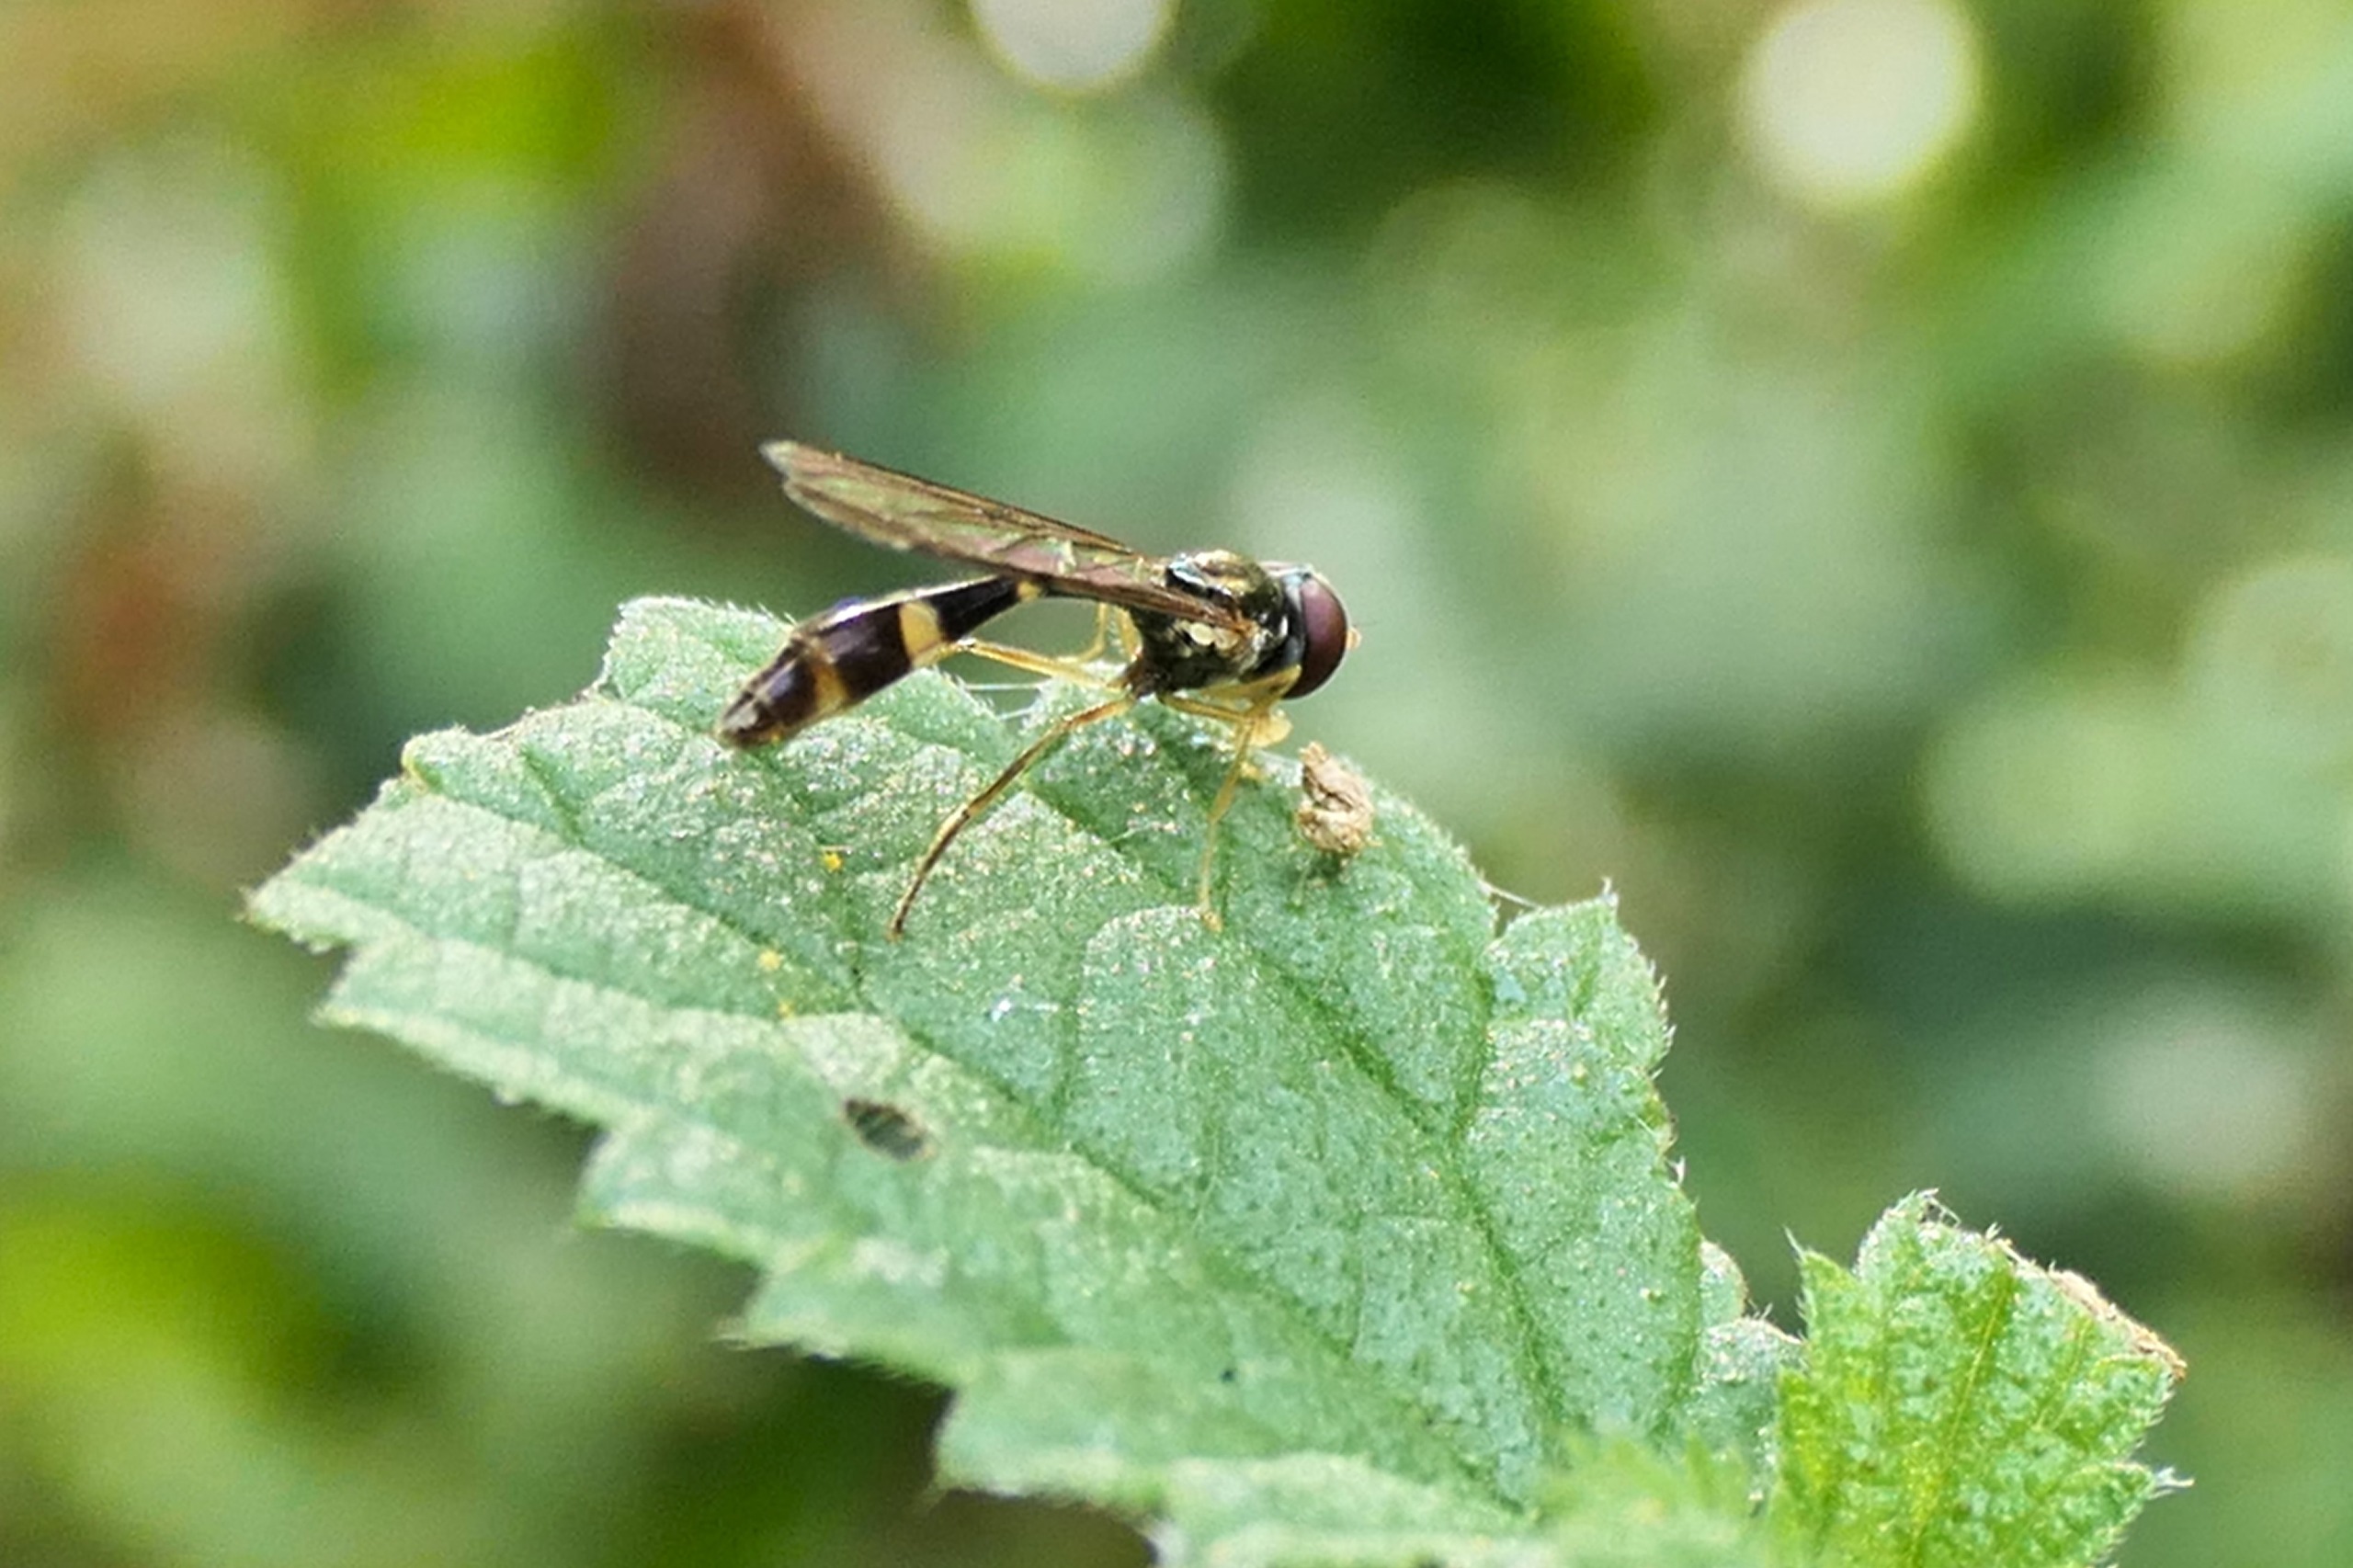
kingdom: Animalia
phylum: Arthropoda
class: Insecta
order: Diptera
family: Syrphidae
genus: Baccha
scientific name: Baccha elongata
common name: Mat spydsvirreflue
